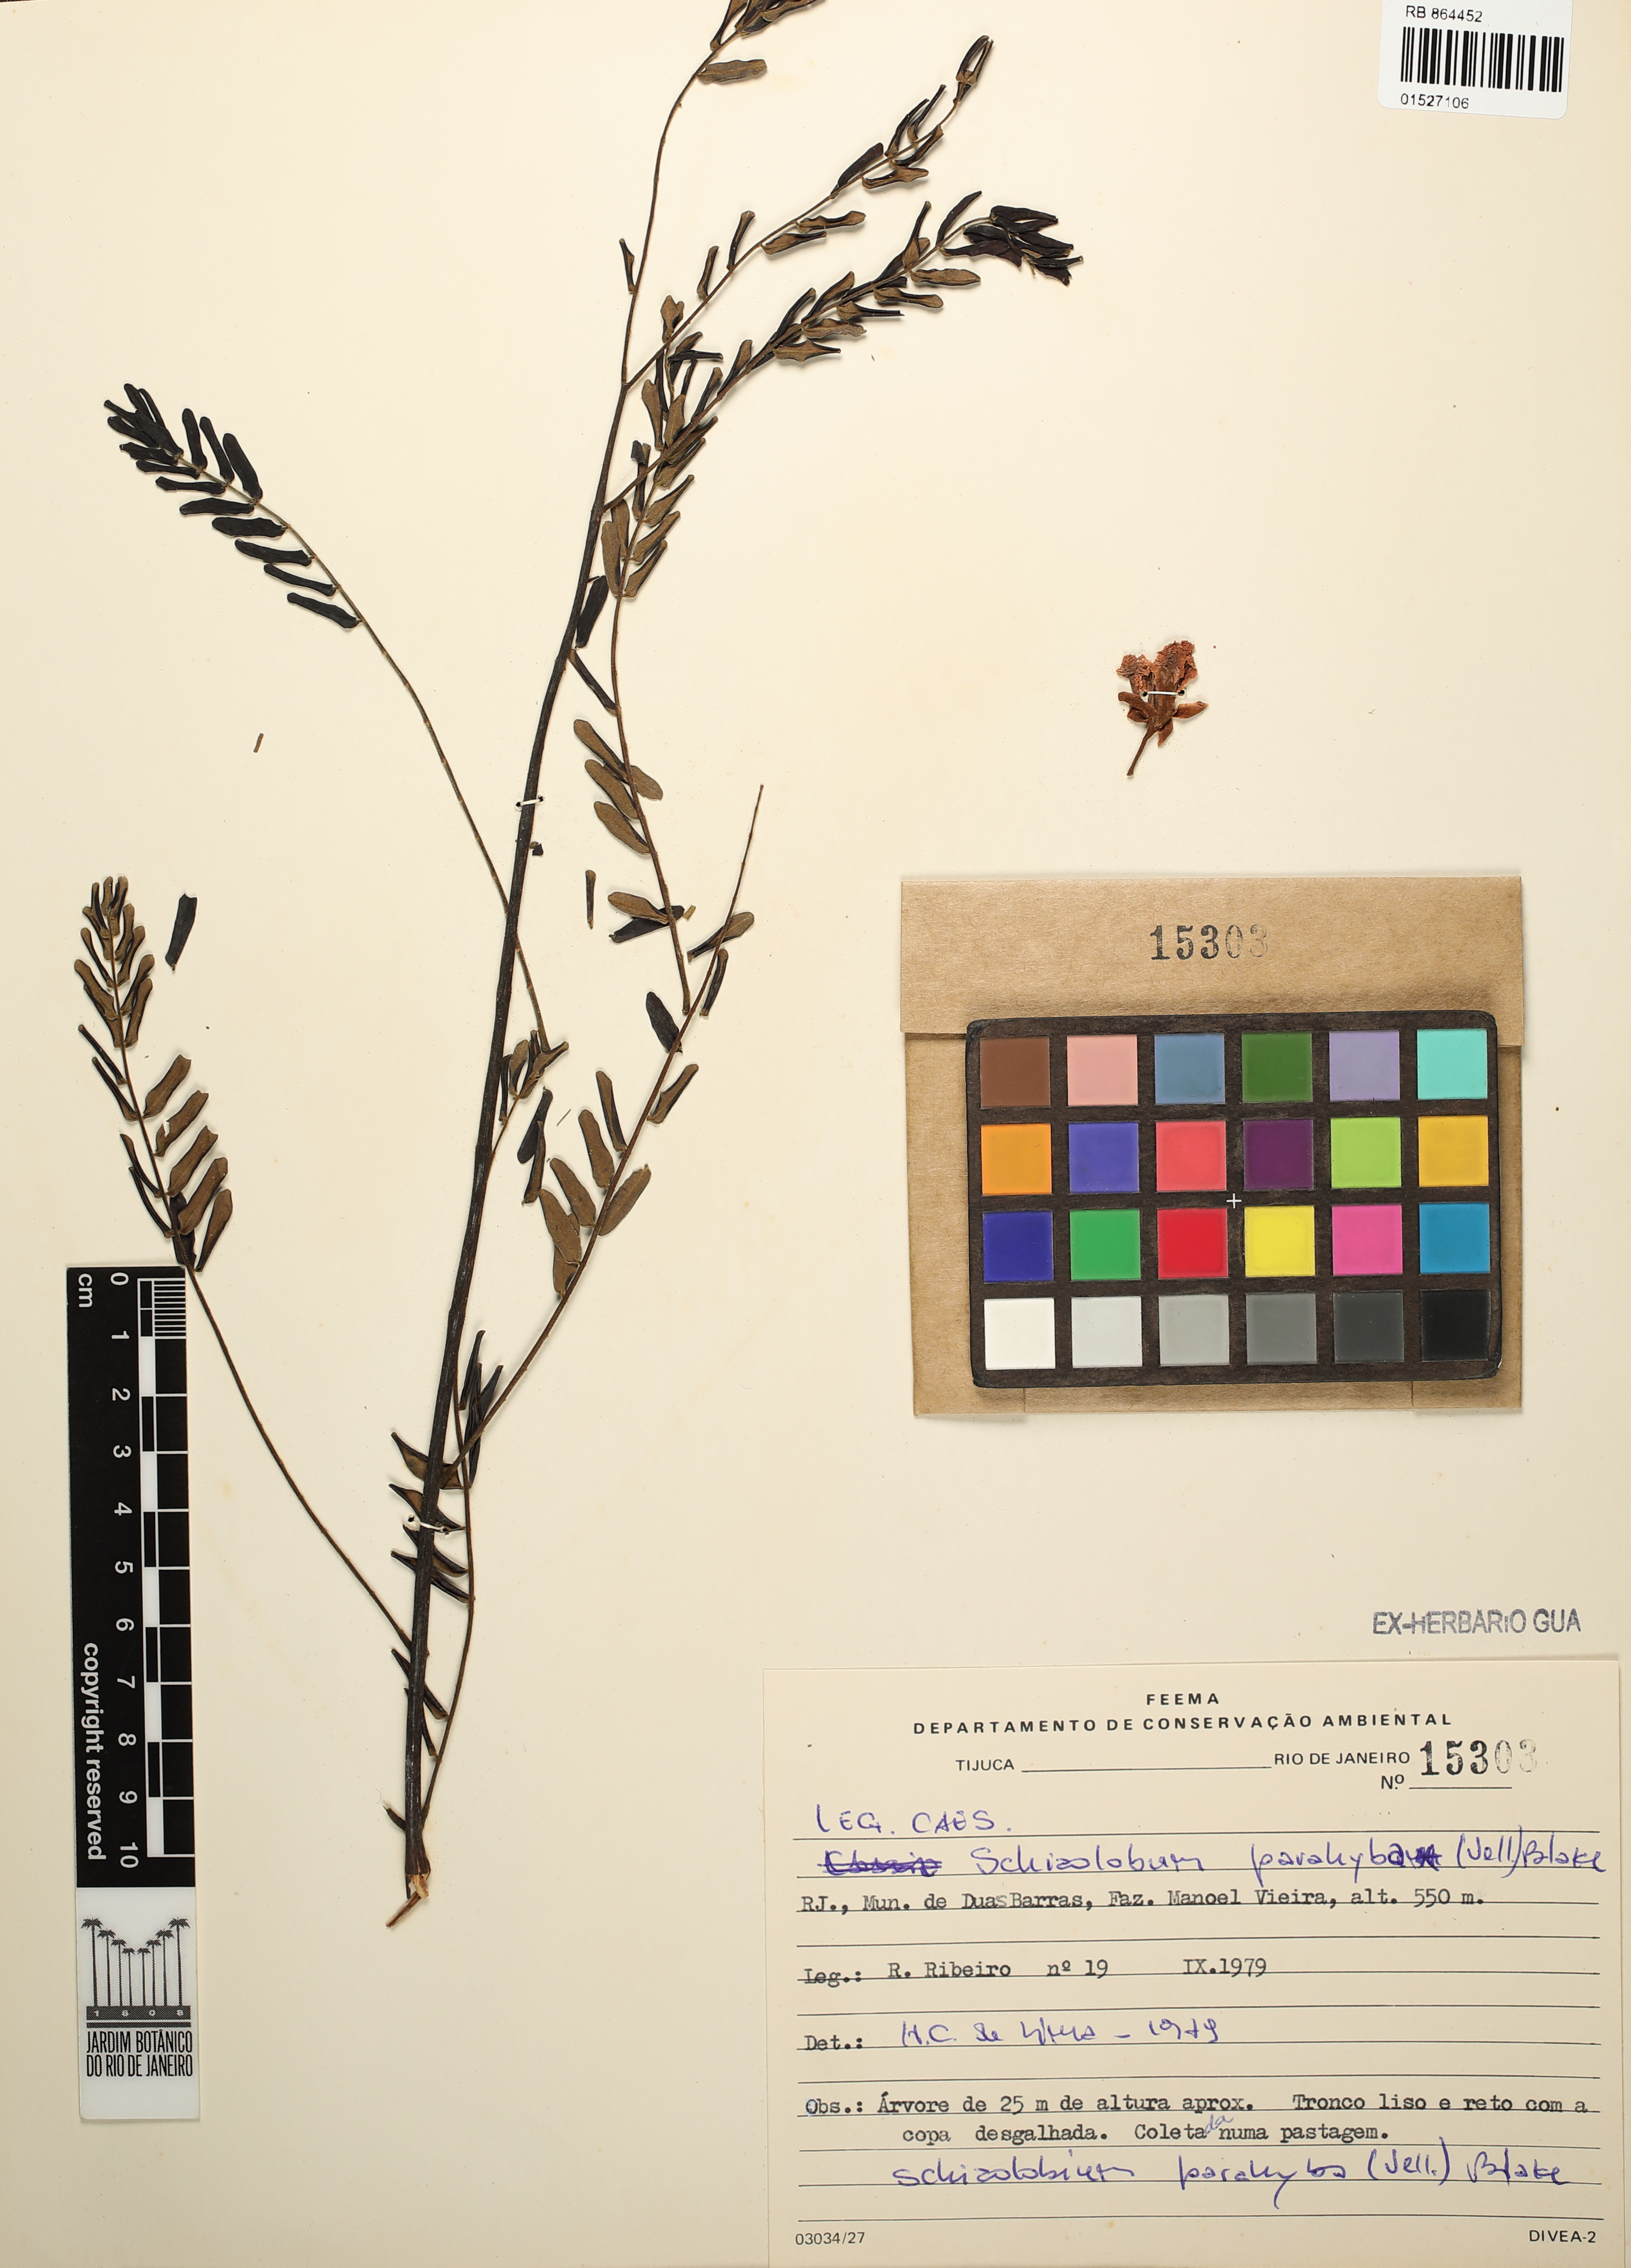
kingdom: Plantae
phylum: Tracheophyta
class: Magnoliopsida
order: Fabales
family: Fabaceae
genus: Schizolobium
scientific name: Schizolobium parahyba
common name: Brazilian firetree
